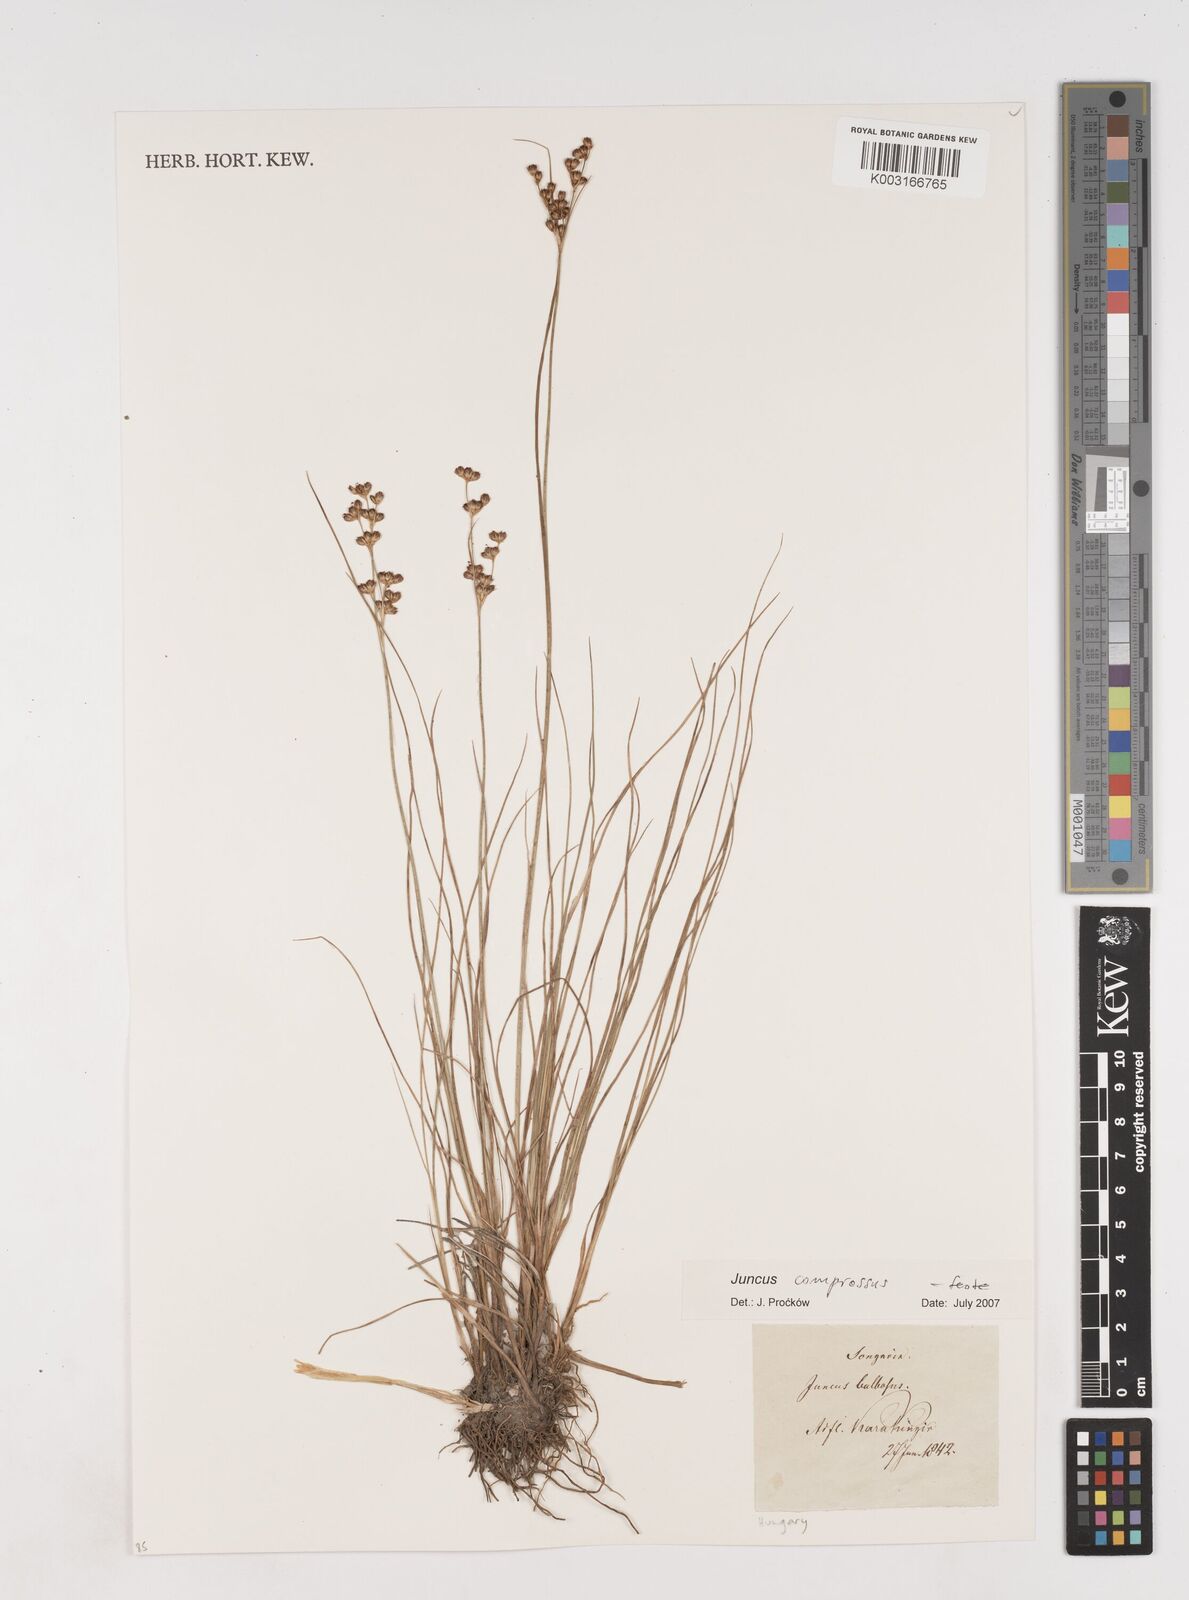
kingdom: Plantae
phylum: Tracheophyta
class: Liliopsida
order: Poales
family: Juncaceae
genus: Juncus
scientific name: Juncus
